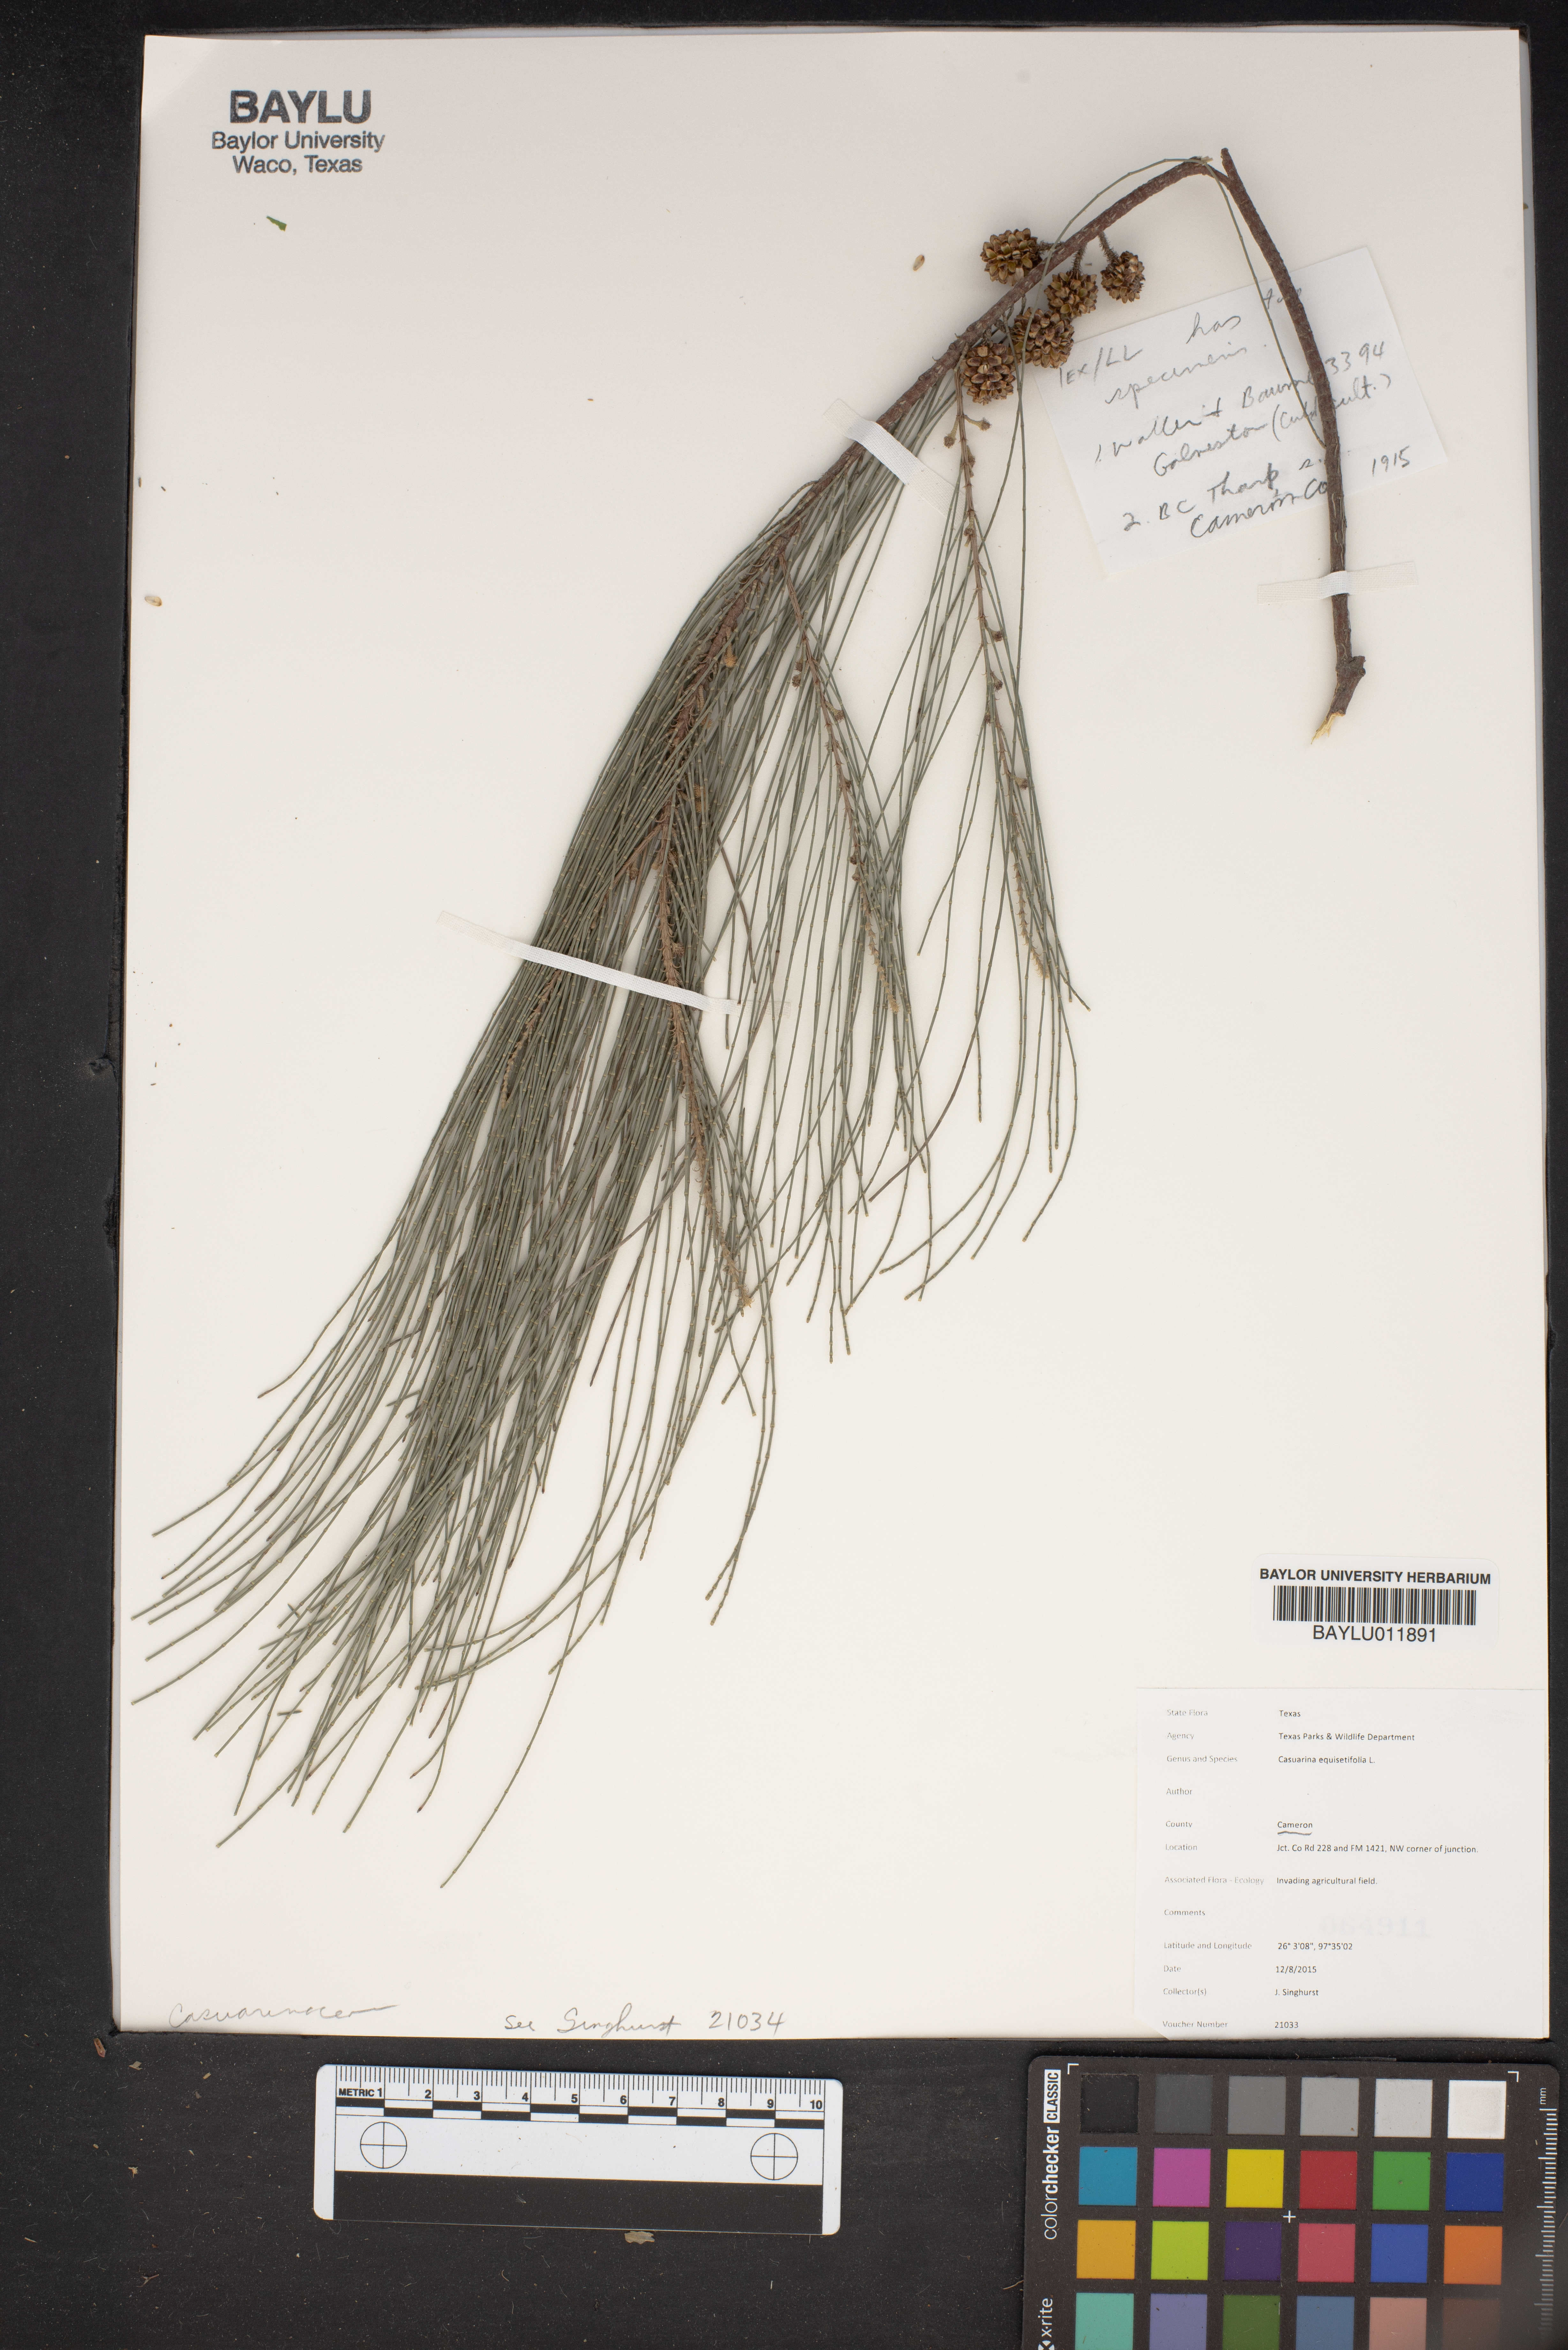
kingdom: Plantae
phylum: Tracheophyta
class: Magnoliopsida
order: Fagales
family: Casuarinaceae
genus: Casuarina
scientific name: Casuarina equisetifolia
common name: Beach sheoak
